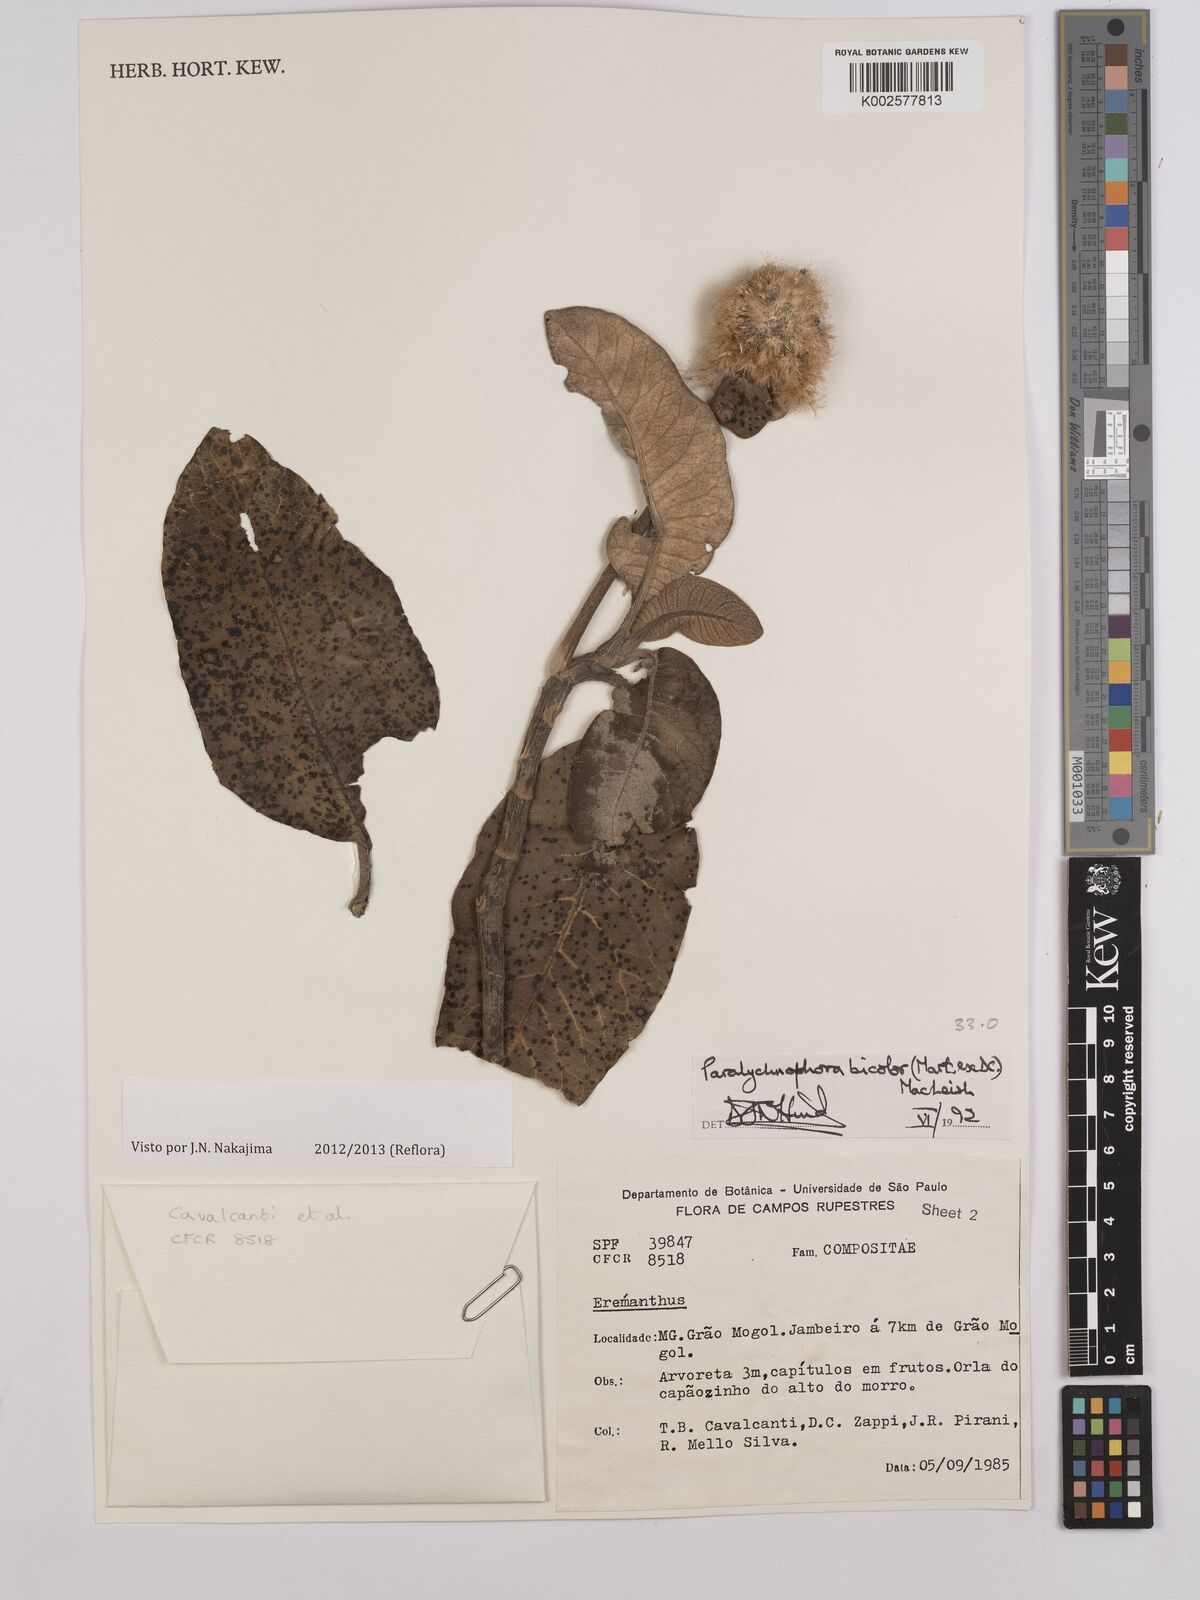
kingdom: Plantae
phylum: Tracheophyta
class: Magnoliopsida
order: Asterales
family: Asteraceae
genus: Paralychnophora
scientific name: Paralychnophora bicolor
